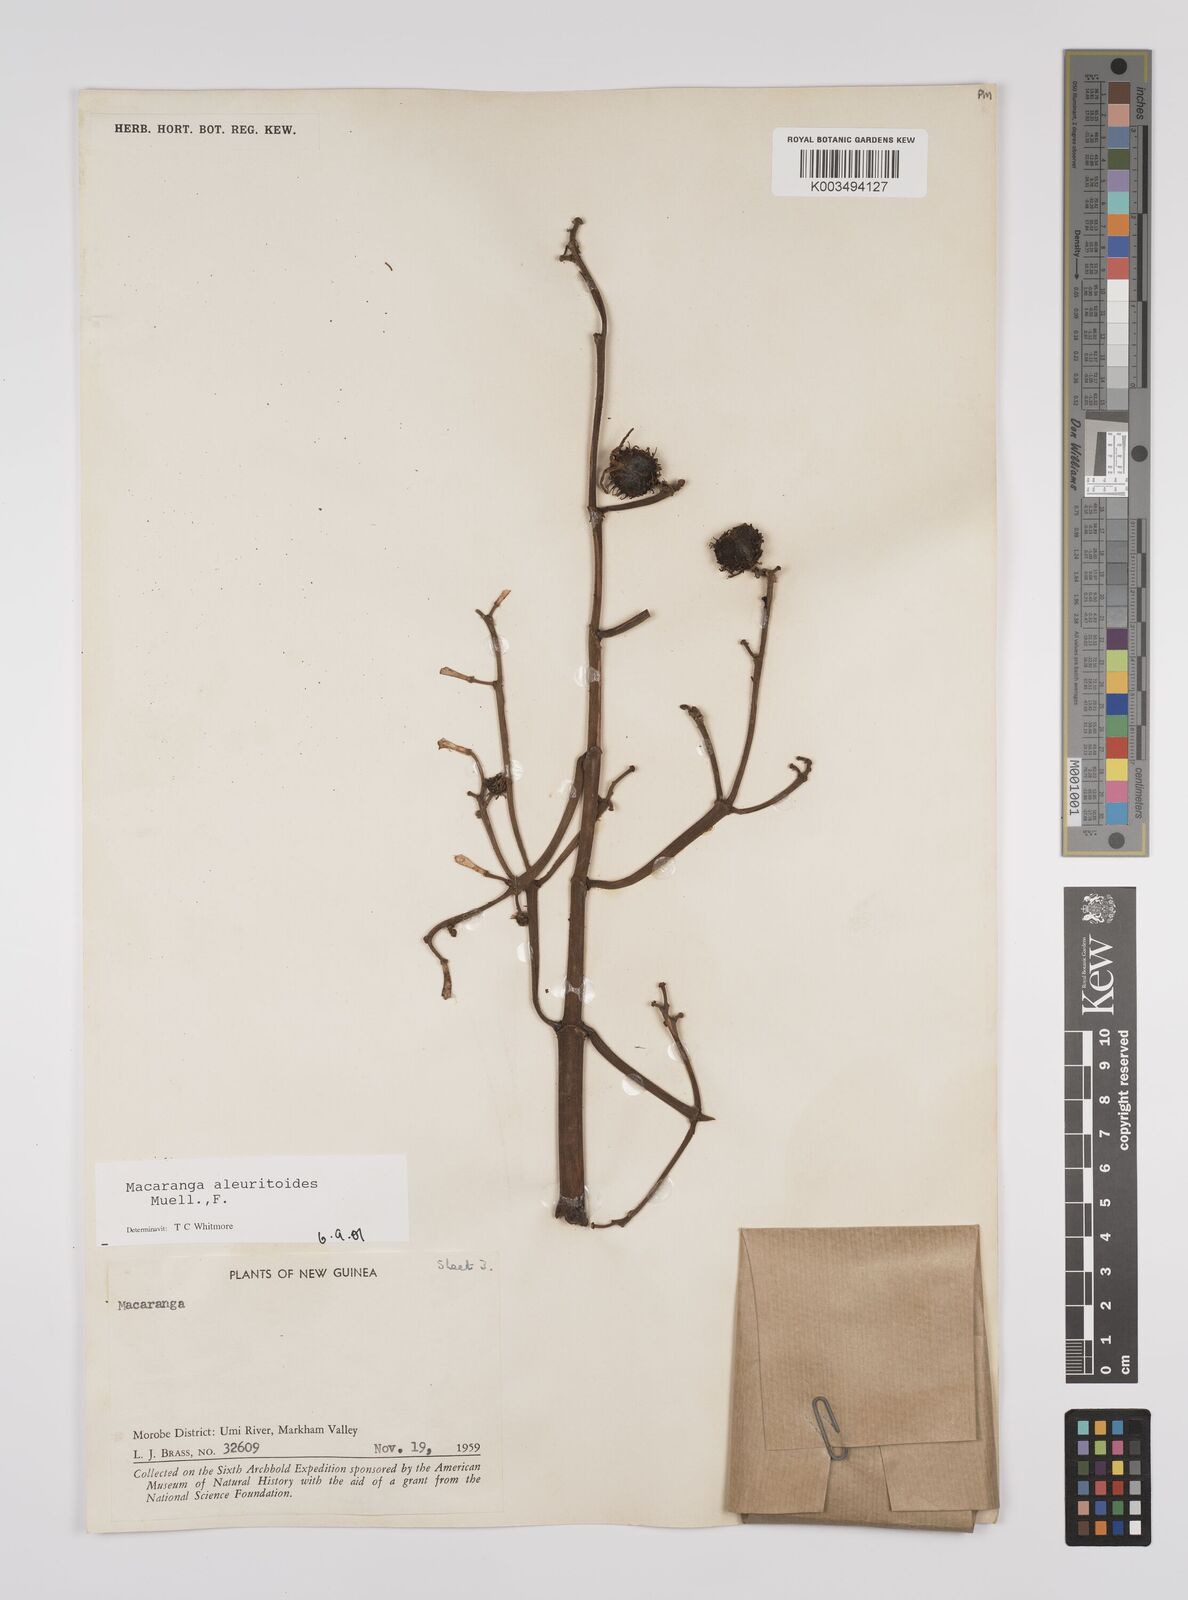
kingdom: Plantae
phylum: Tracheophyta
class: Magnoliopsida
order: Malpighiales
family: Euphorbiaceae
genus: Macaranga
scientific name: Macaranga aleuritoides
